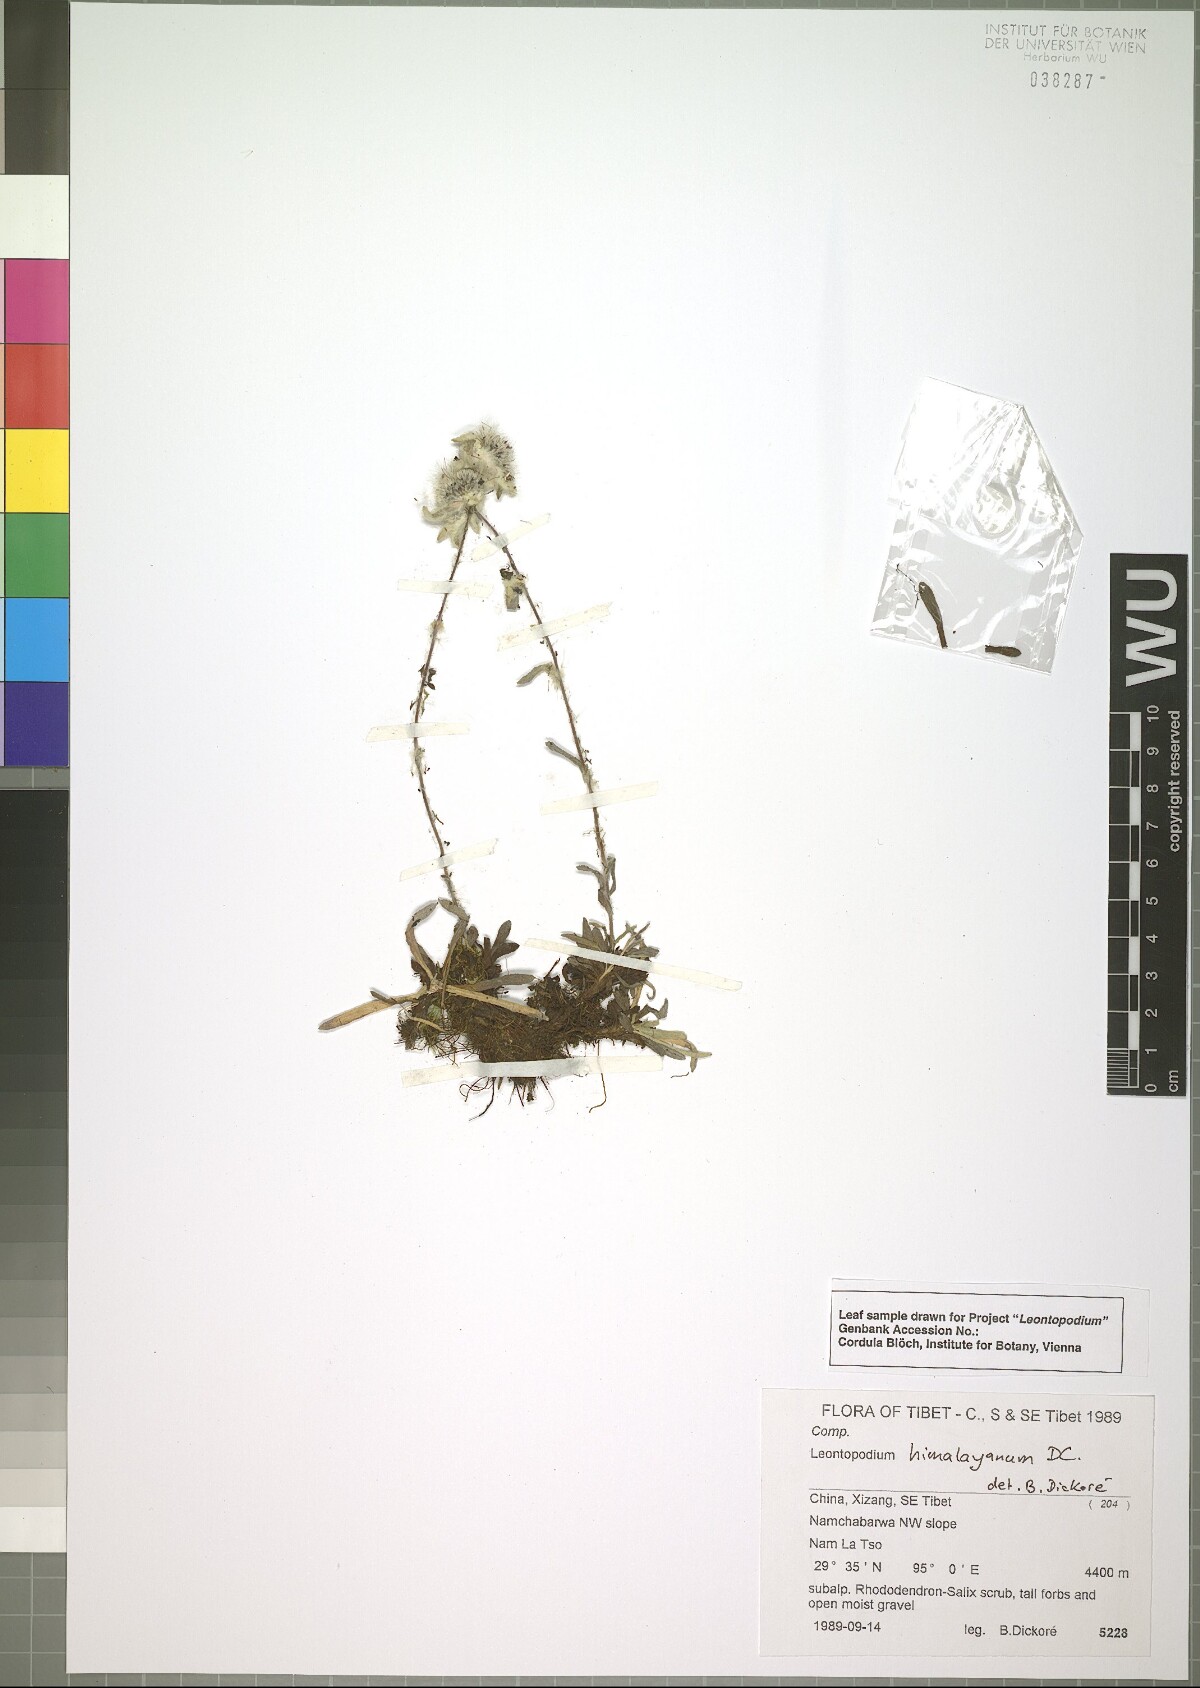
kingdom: Plantae
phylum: Tracheophyta
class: Magnoliopsida
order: Asterales
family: Asteraceae
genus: Leontopodium
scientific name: Leontopodium himalayanum
